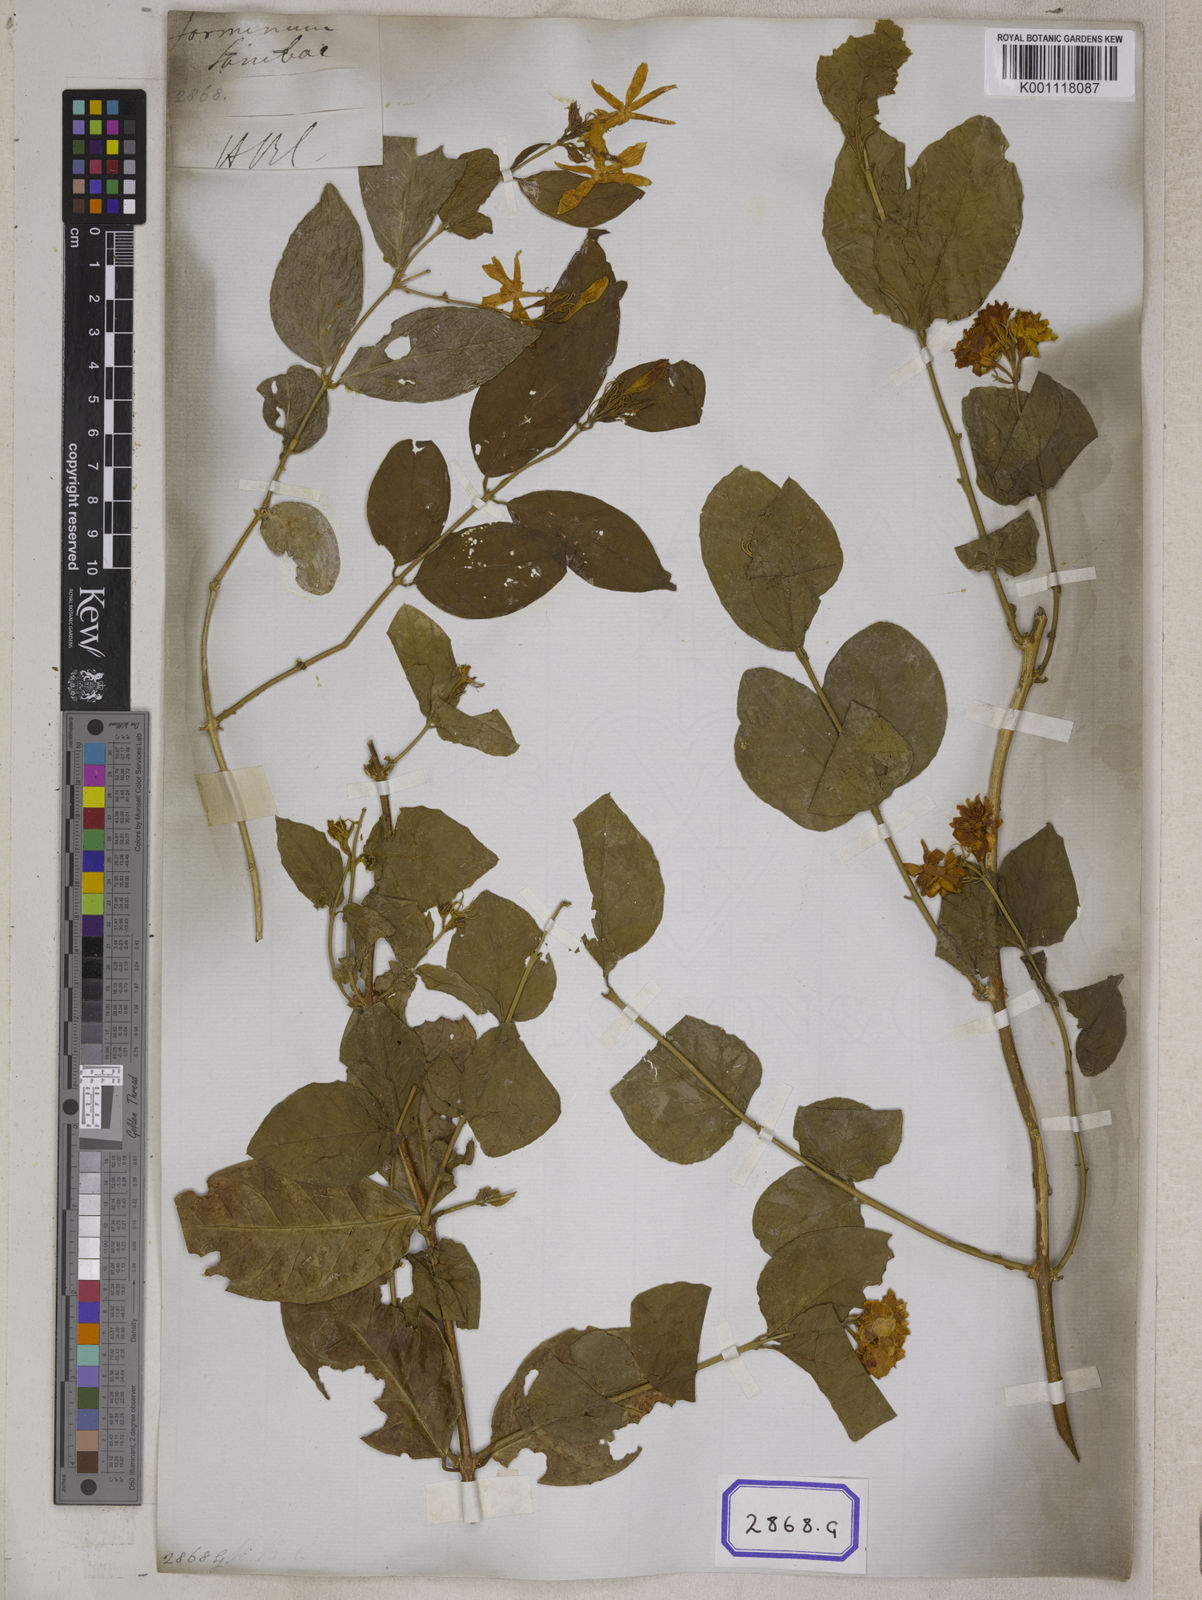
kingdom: Plantae
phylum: Tracheophyta
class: Magnoliopsida
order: Lamiales
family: Oleaceae
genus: Jasminum
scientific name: Jasminum sambac
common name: Arabian jasmine
